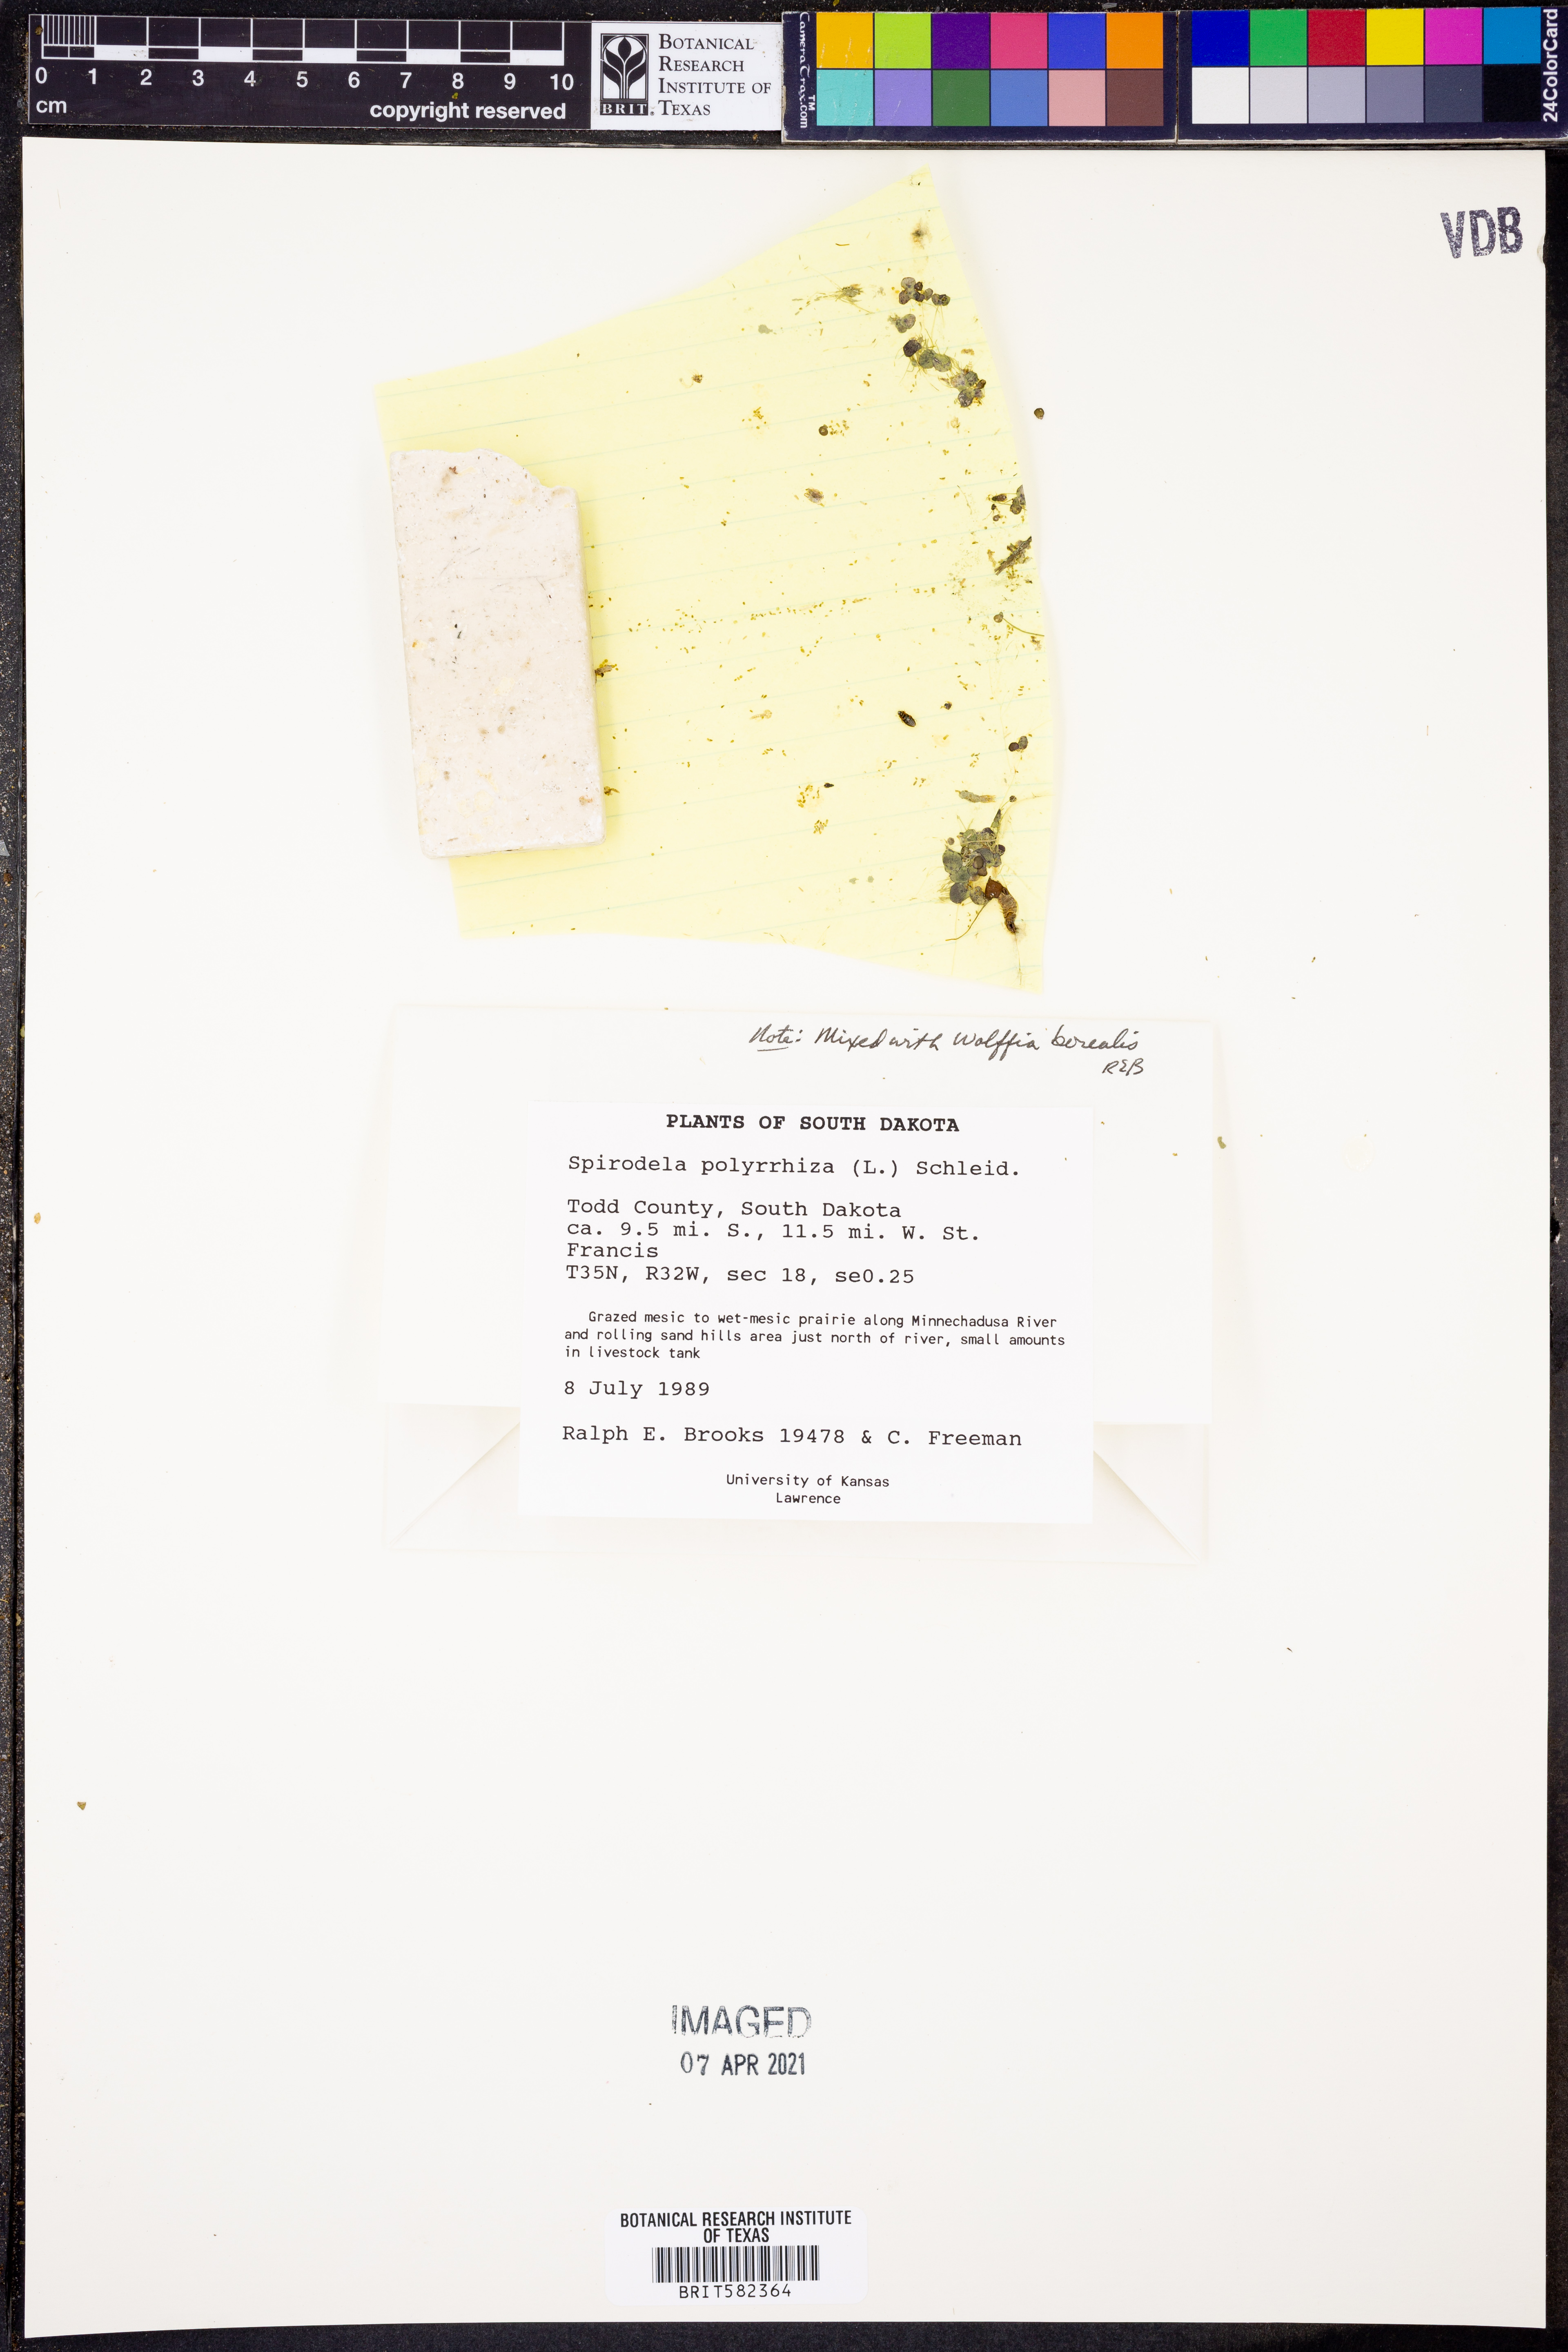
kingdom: Plantae
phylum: Tracheophyta
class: Liliopsida
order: Alismatales
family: Araceae
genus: Spirodela
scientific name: Spirodela polyrhiza
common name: Great duckweed
